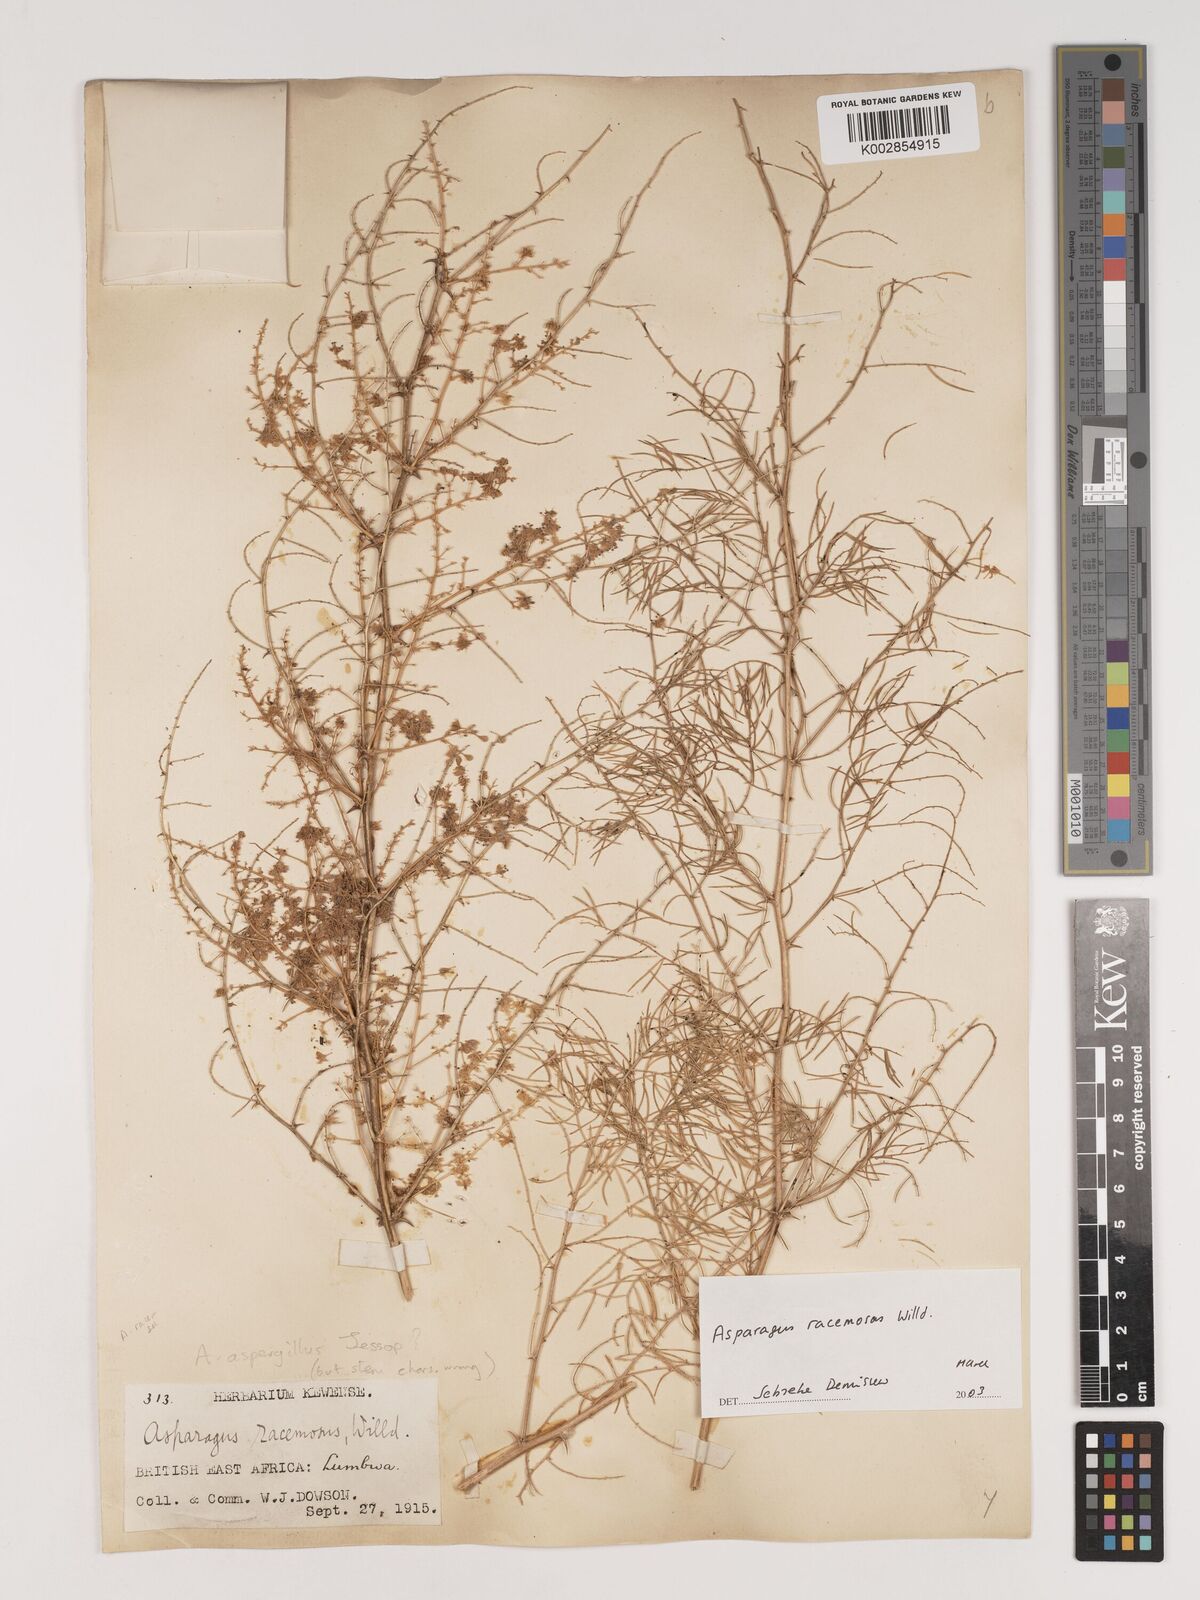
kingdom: Plantae
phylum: Tracheophyta
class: Liliopsida
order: Asparagales
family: Asparagaceae
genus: Asparagus
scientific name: Asparagus racemosus
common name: Asparagus-fern
